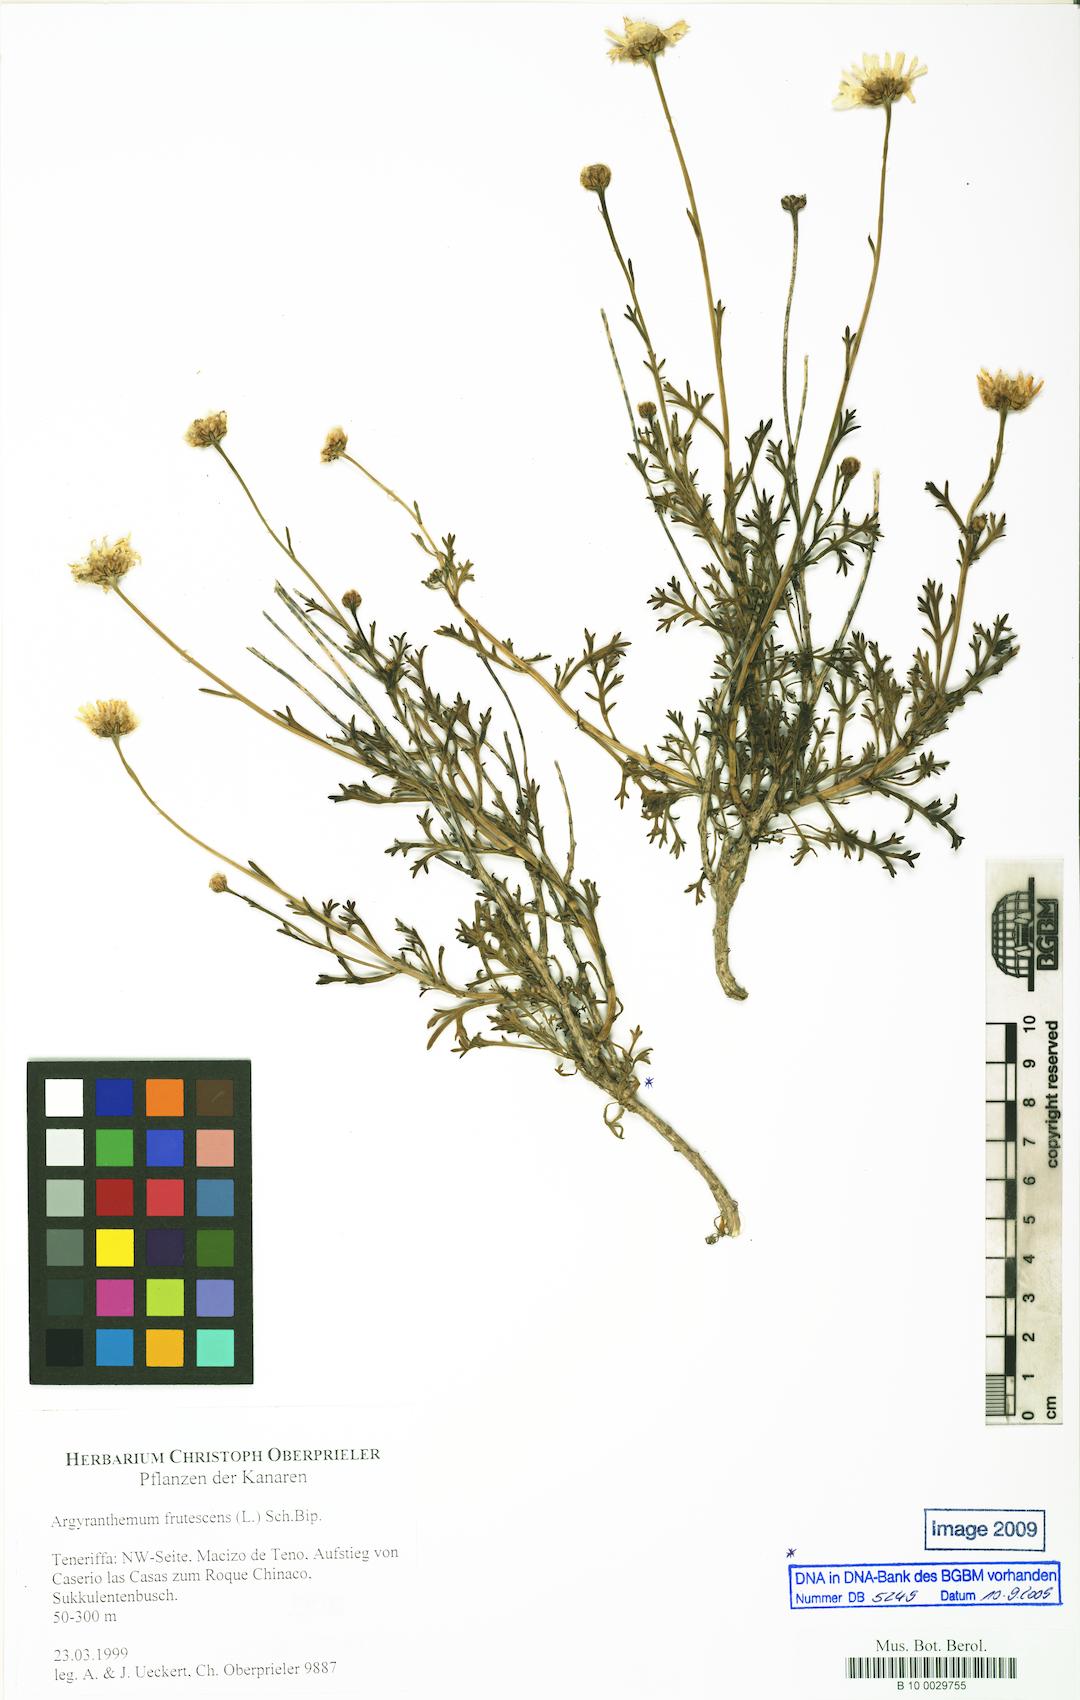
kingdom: Plantae
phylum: Tracheophyta
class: Magnoliopsida
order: Asterales
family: Asteraceae
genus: Argyranthemum
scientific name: Argyranthemum frutescens
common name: Paris daisy
